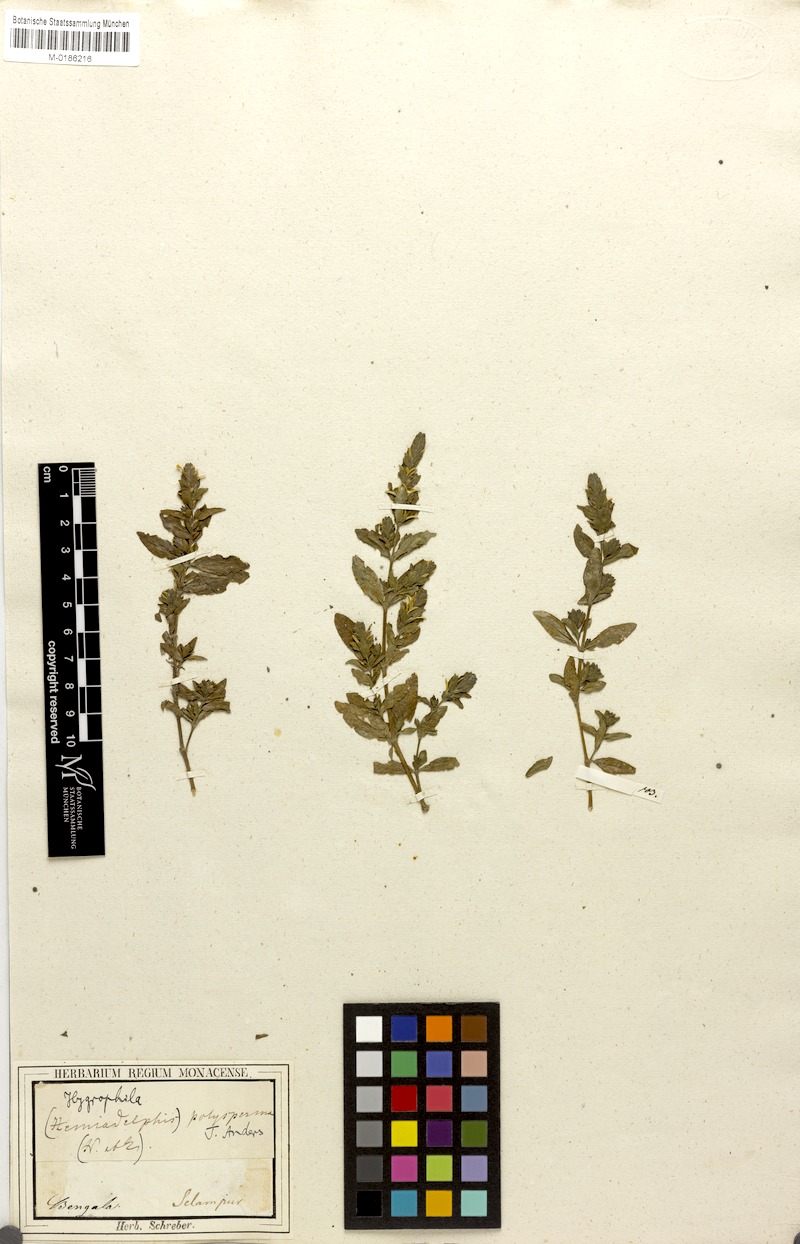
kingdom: Plantae
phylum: Tracheophyta
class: Magnoliopsida
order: Lamiales
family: Acanthaceae
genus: Hygrophila
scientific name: Hygrophila polysperma
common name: Indian swampweed
